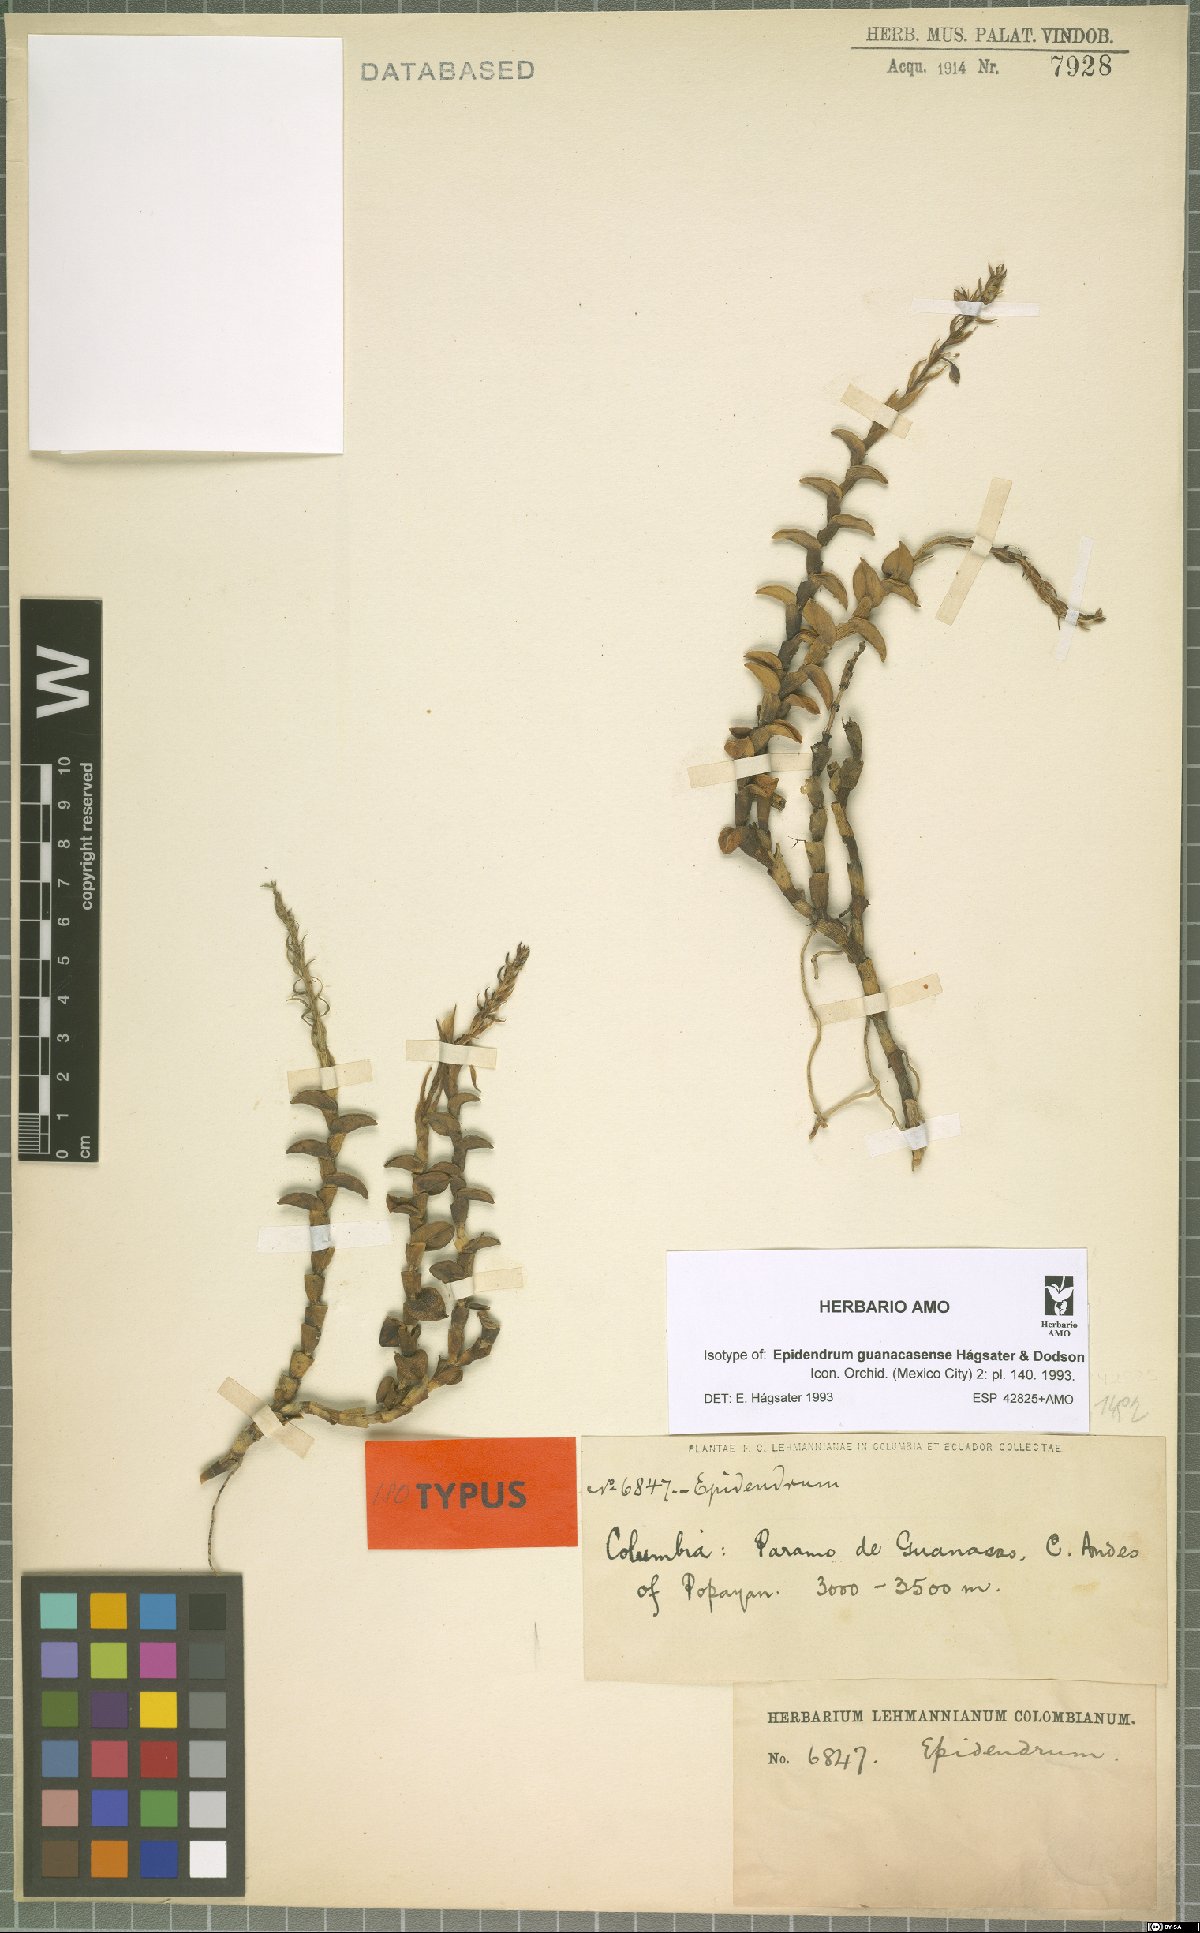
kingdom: Plantae
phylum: Tracheophyta
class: Liliopsida
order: Asparagales
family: Orchidaceae
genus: Epidendrum
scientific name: Epidendrum guanacasense
